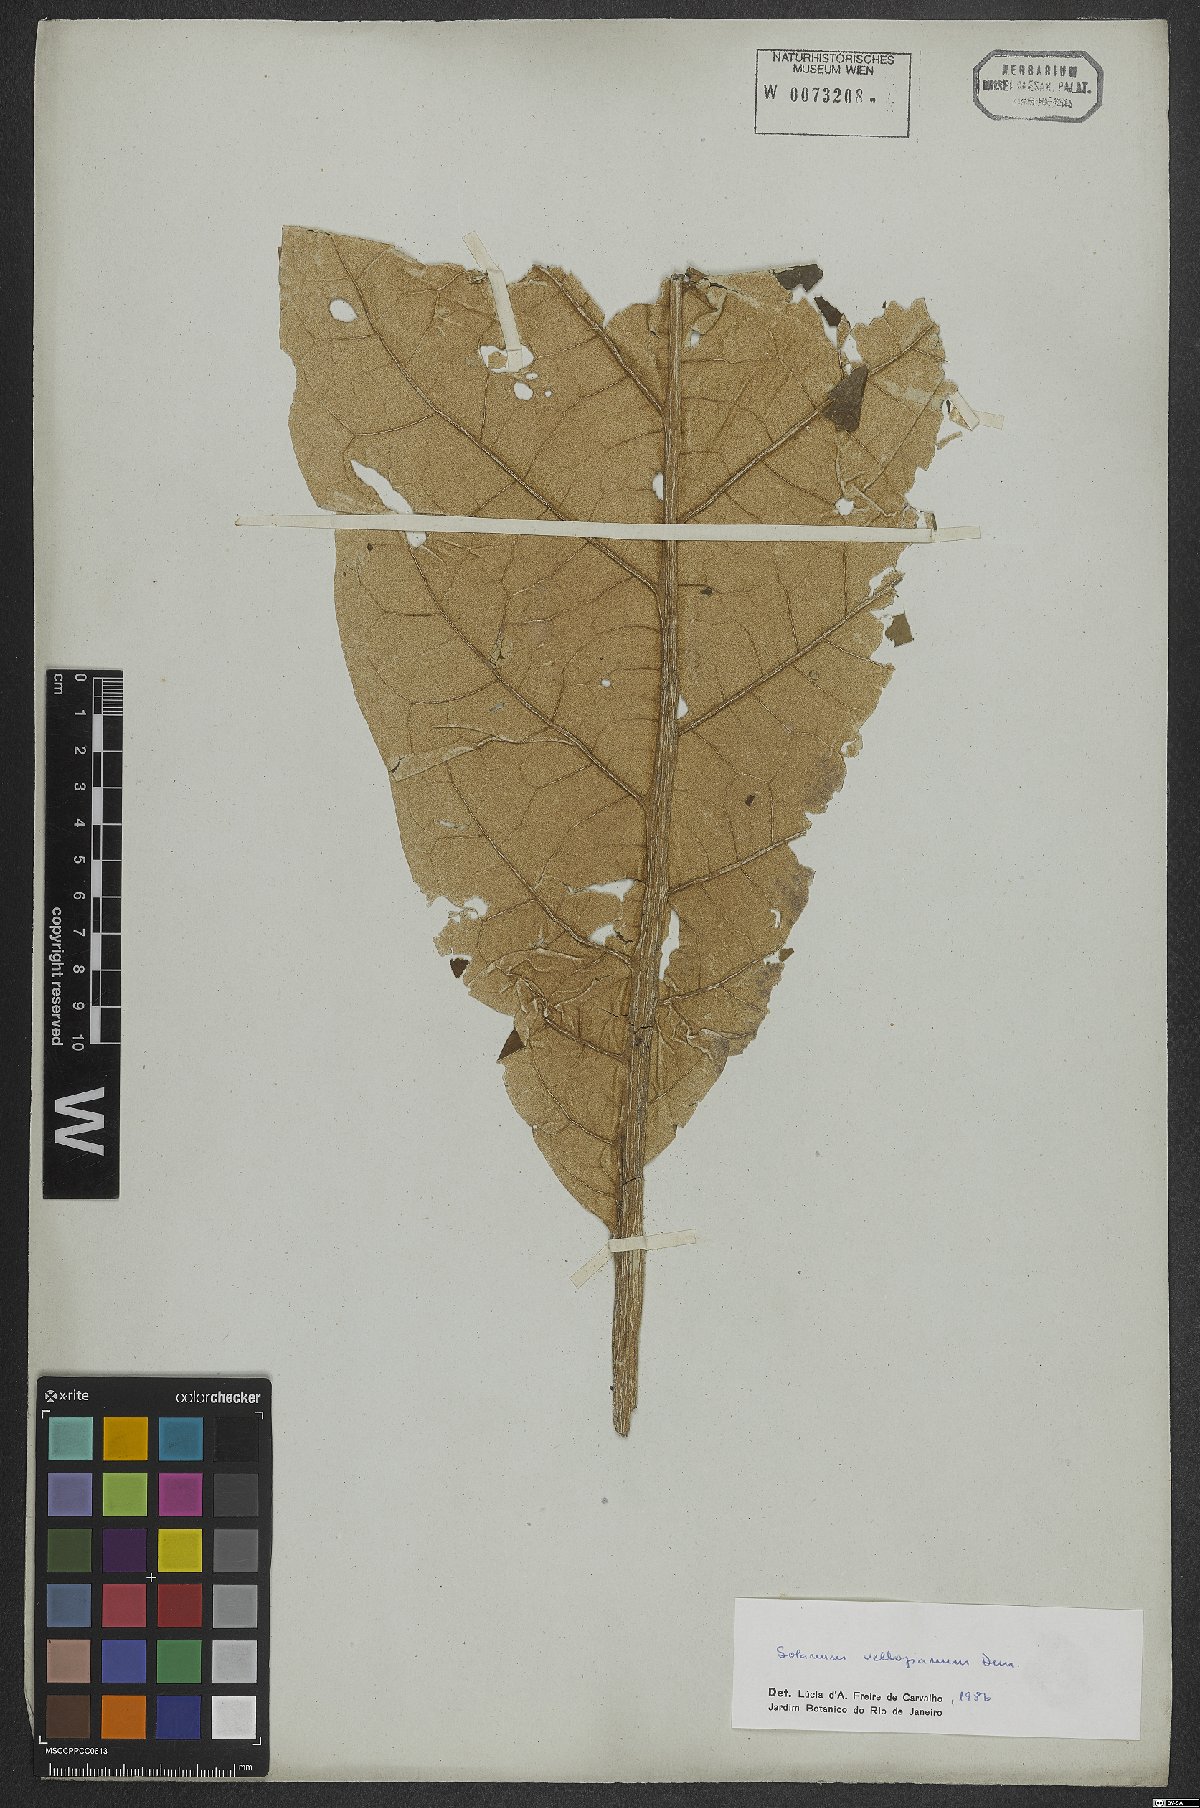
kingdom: Plantae
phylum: Tracheophyta
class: Magnoliopsida
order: Solanales
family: Solanaceae
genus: Solanum
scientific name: Solanum vellozianum
